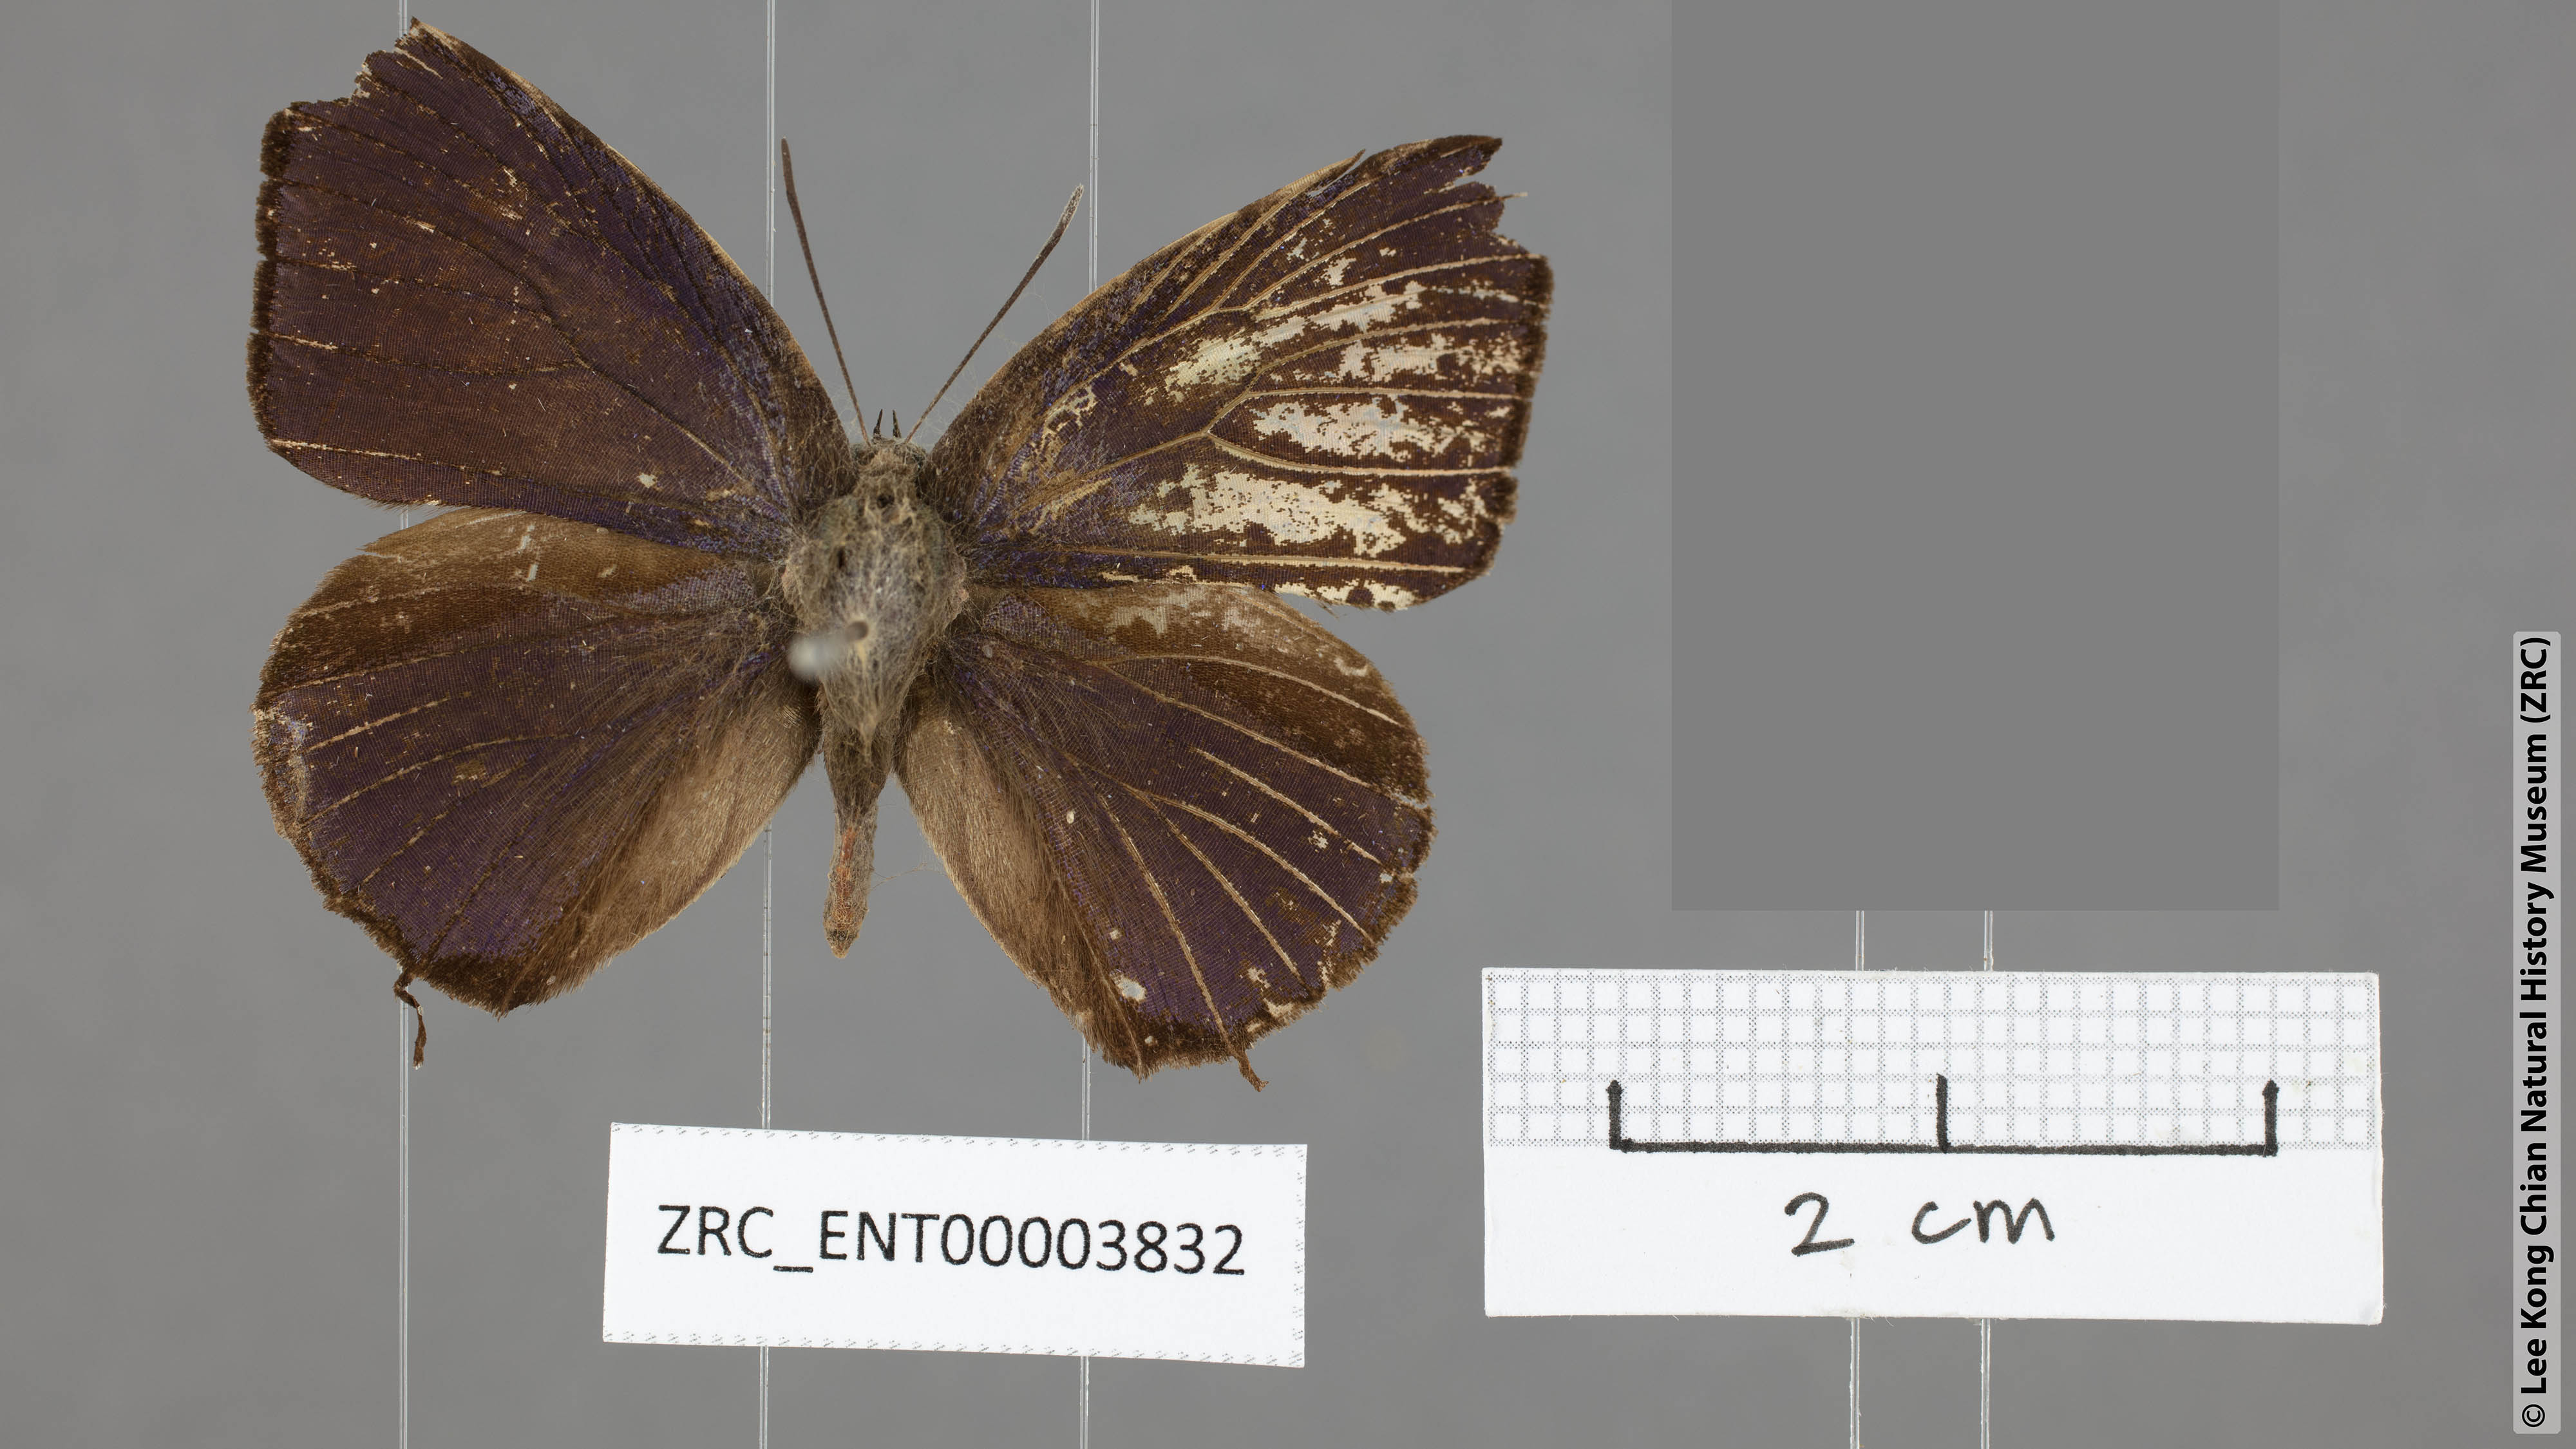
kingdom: Animalia
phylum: Arthropoda
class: Insecta
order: Lepidoptera
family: Lycaenidae
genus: Arhopala
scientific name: Arhopala allata
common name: Rosy oakblue
